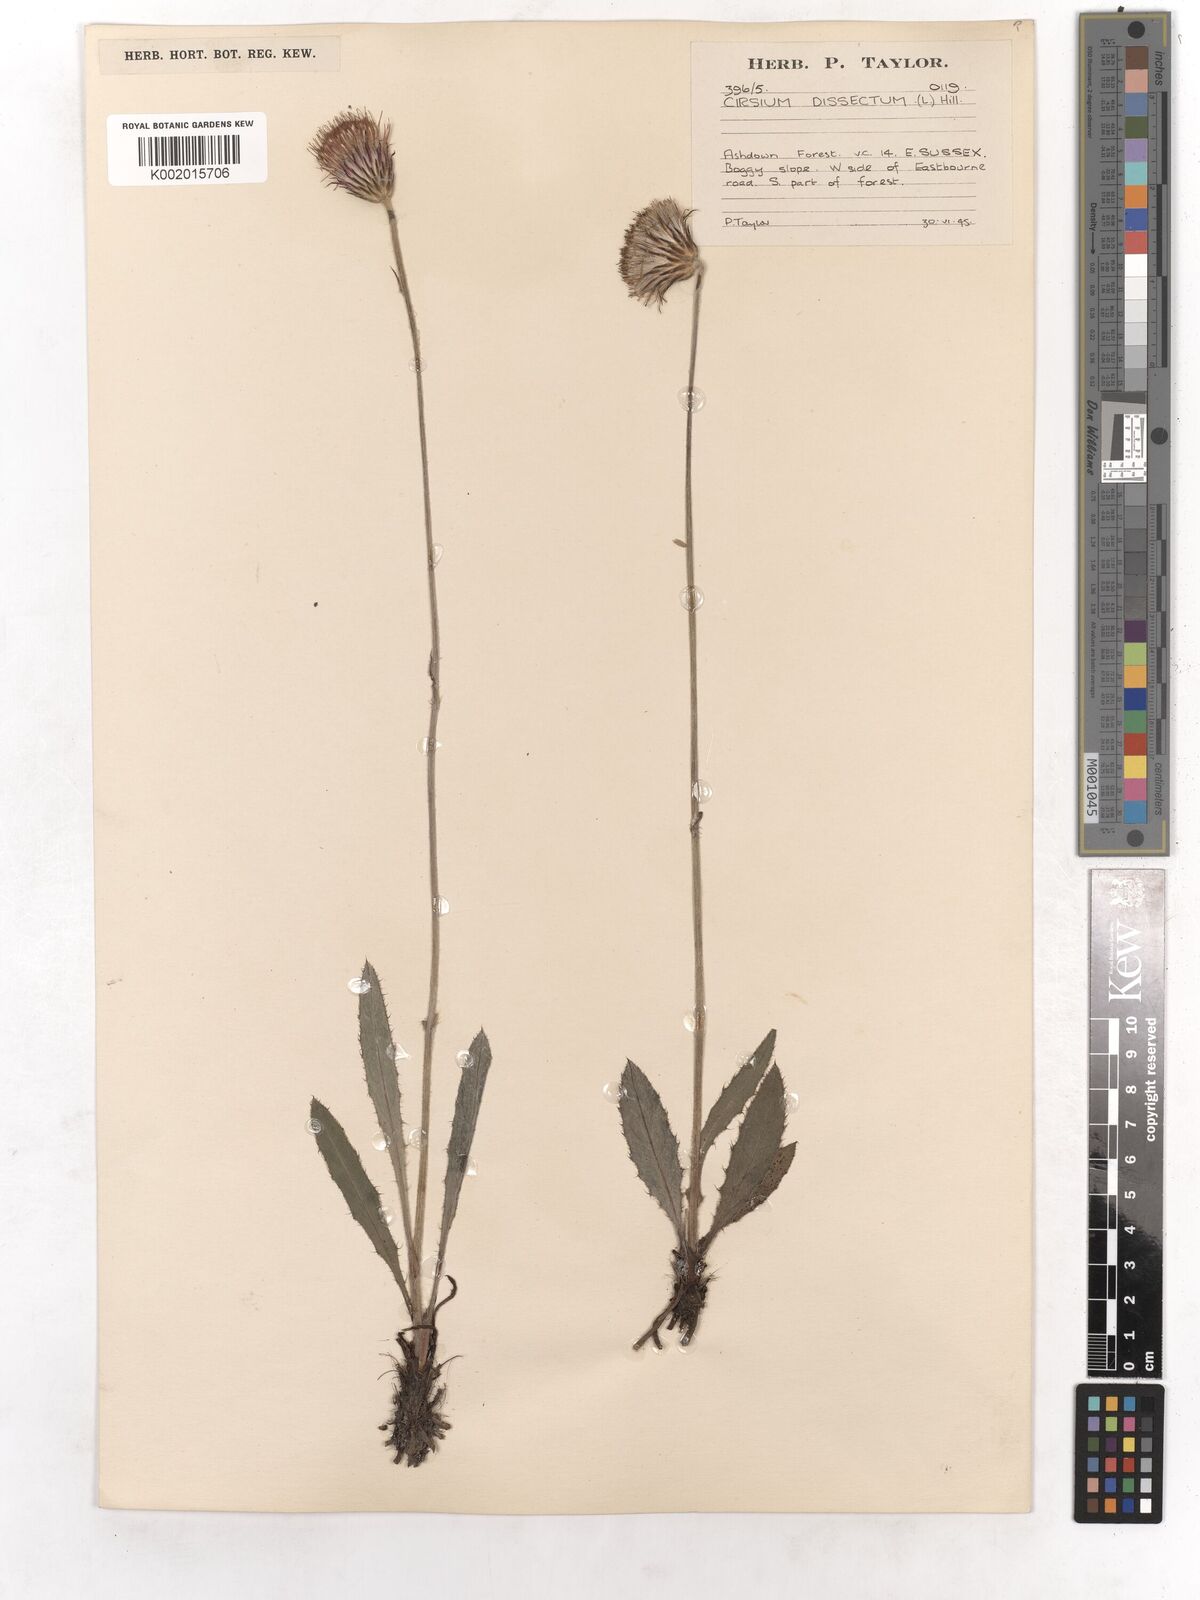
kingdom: Plantae
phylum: Tracheophyta
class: Magnoliopsida
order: Asterales
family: Asteraceae
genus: Cirsium
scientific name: Cirsium dissectum
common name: Meadow thistle
